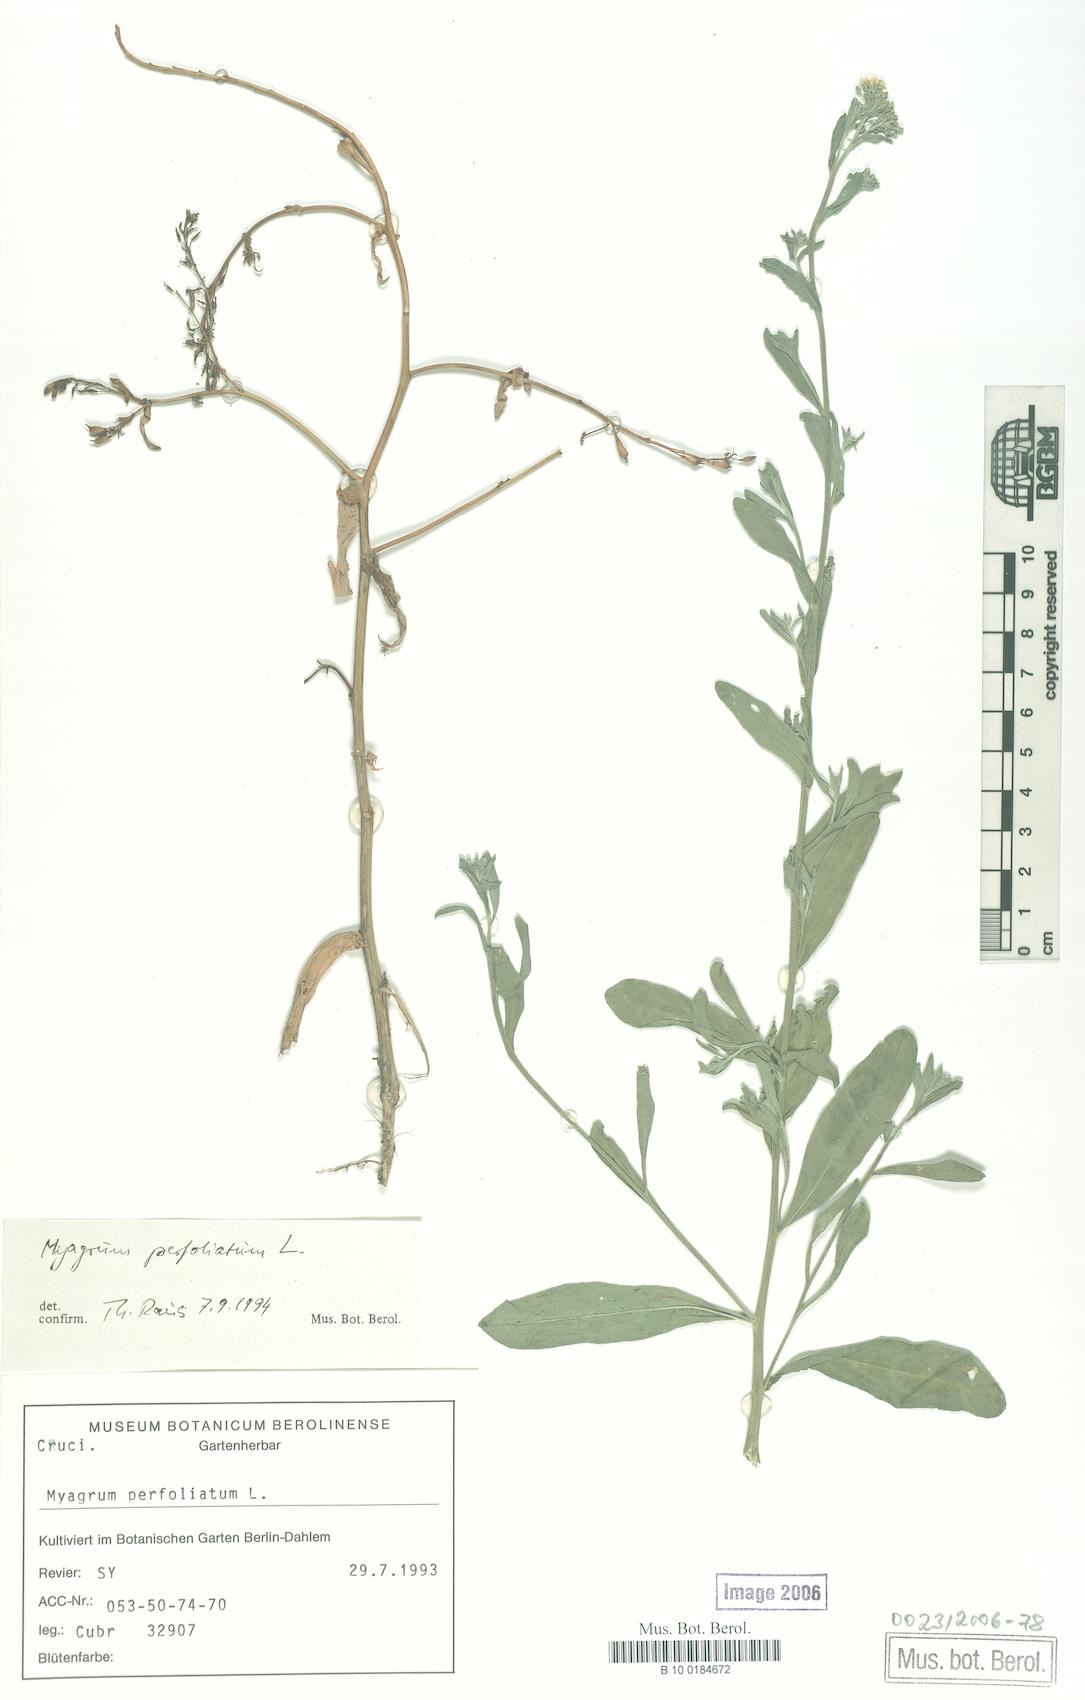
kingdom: Plantae
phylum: Tracheophyta
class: Magnoliopsida
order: Brassicales
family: Brassicaceae
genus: Myagrum
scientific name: Myagrum perfoliatum
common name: Mitre cress
